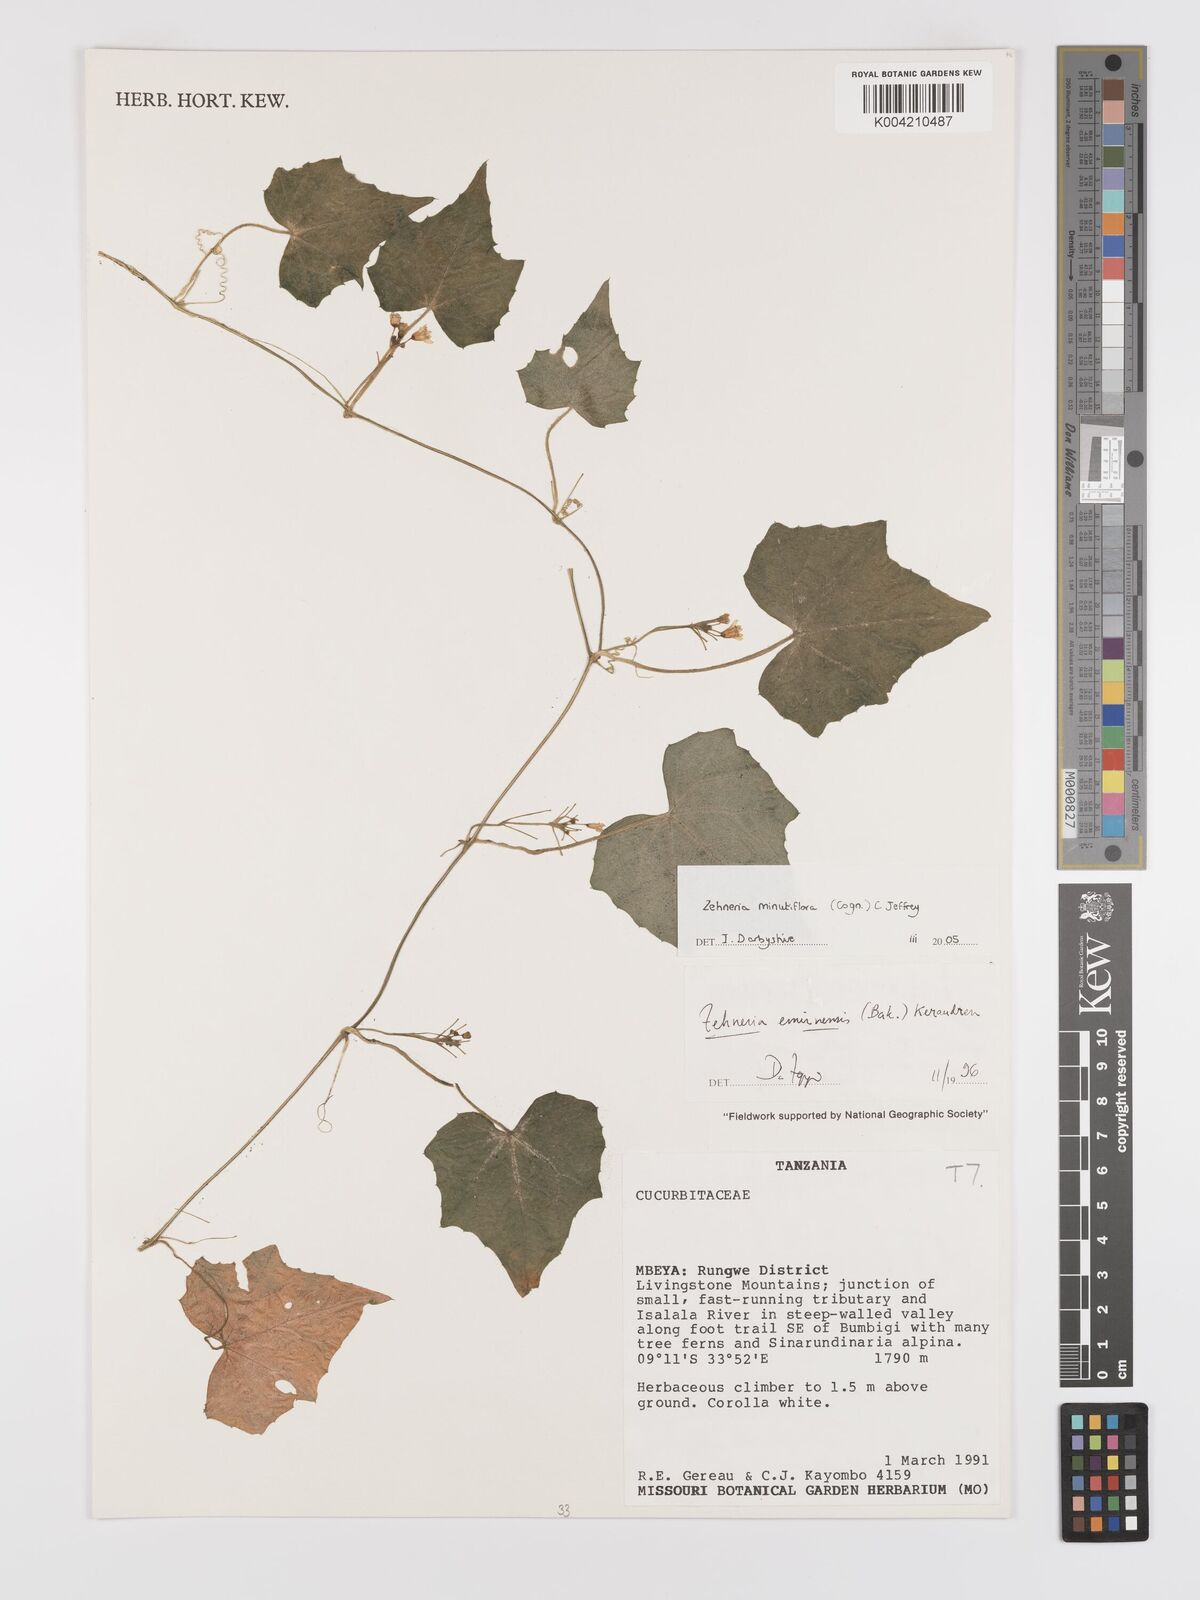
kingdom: Plantae
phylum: Tracheophyta
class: Magnoliopsida
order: Cucurbitales
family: Cucurbitaceae
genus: Zehneria
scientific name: Zehneria minutiflora
